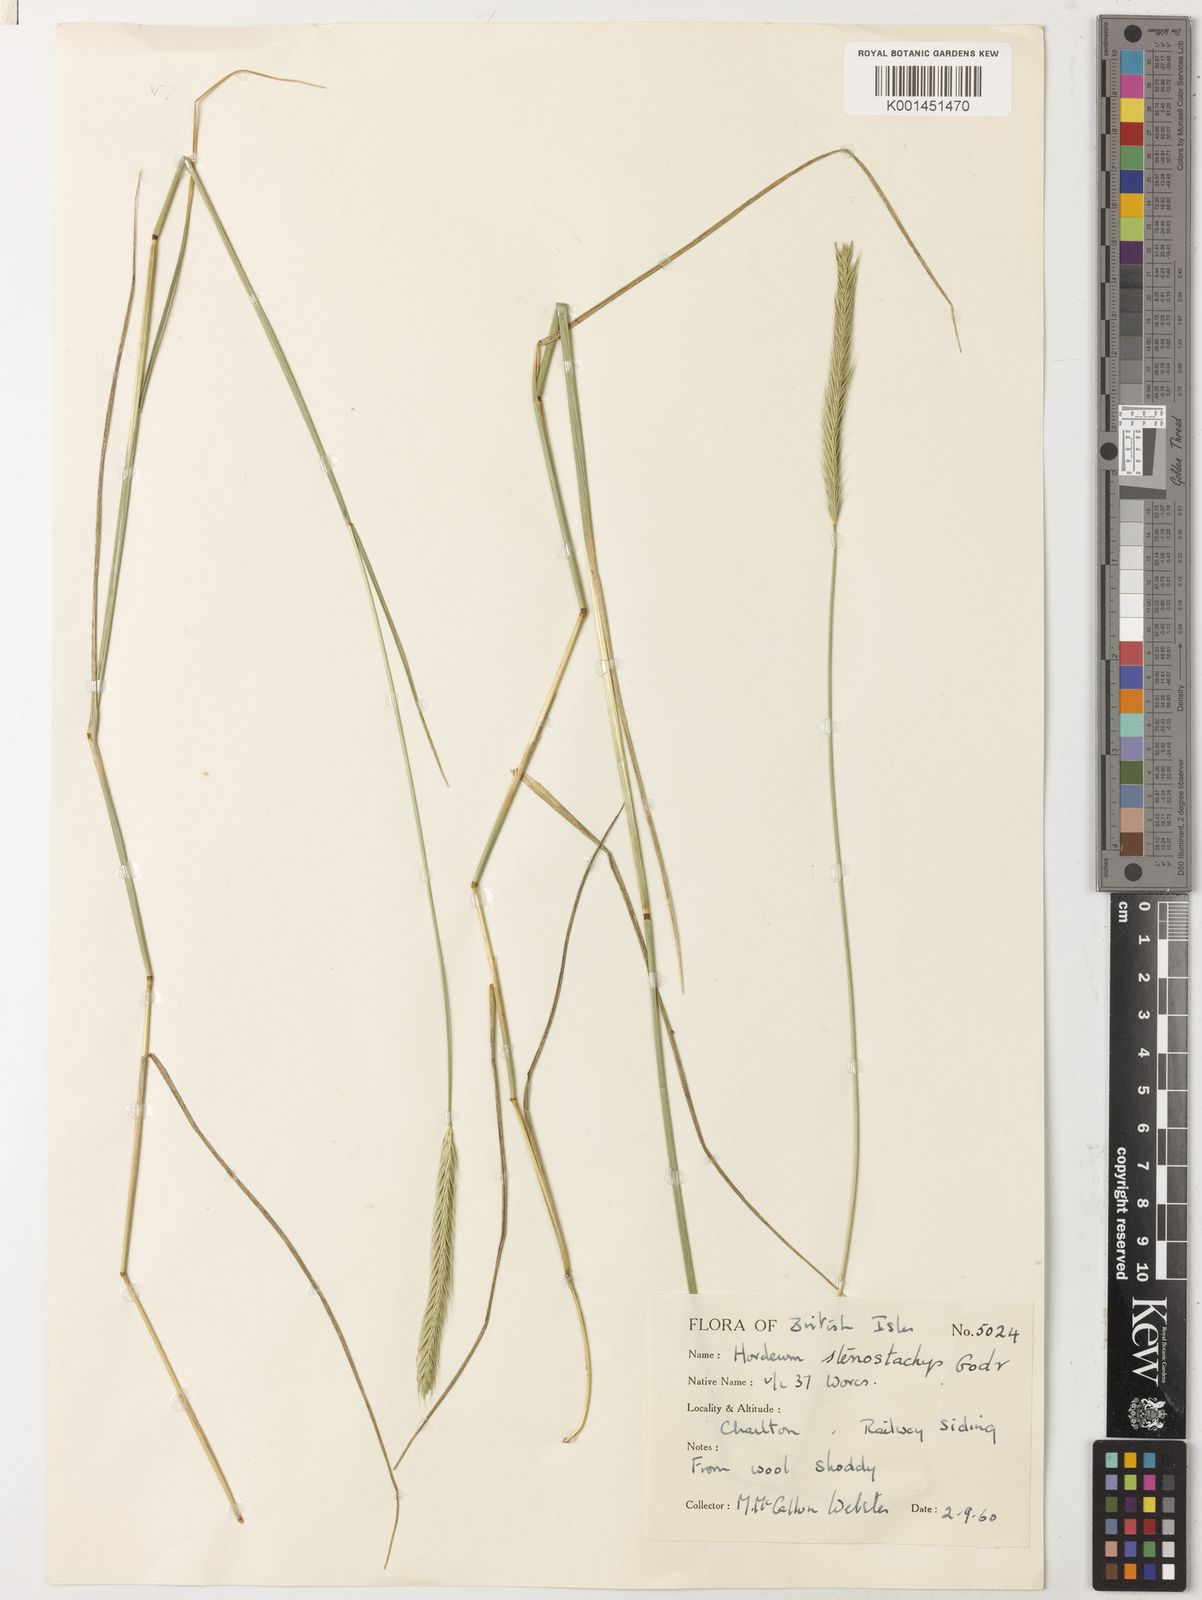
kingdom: Plantae
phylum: Tracheophyta
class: Liliopsida
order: Poales
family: Poaceae
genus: Hordeum
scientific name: Hordeum stenostachys
